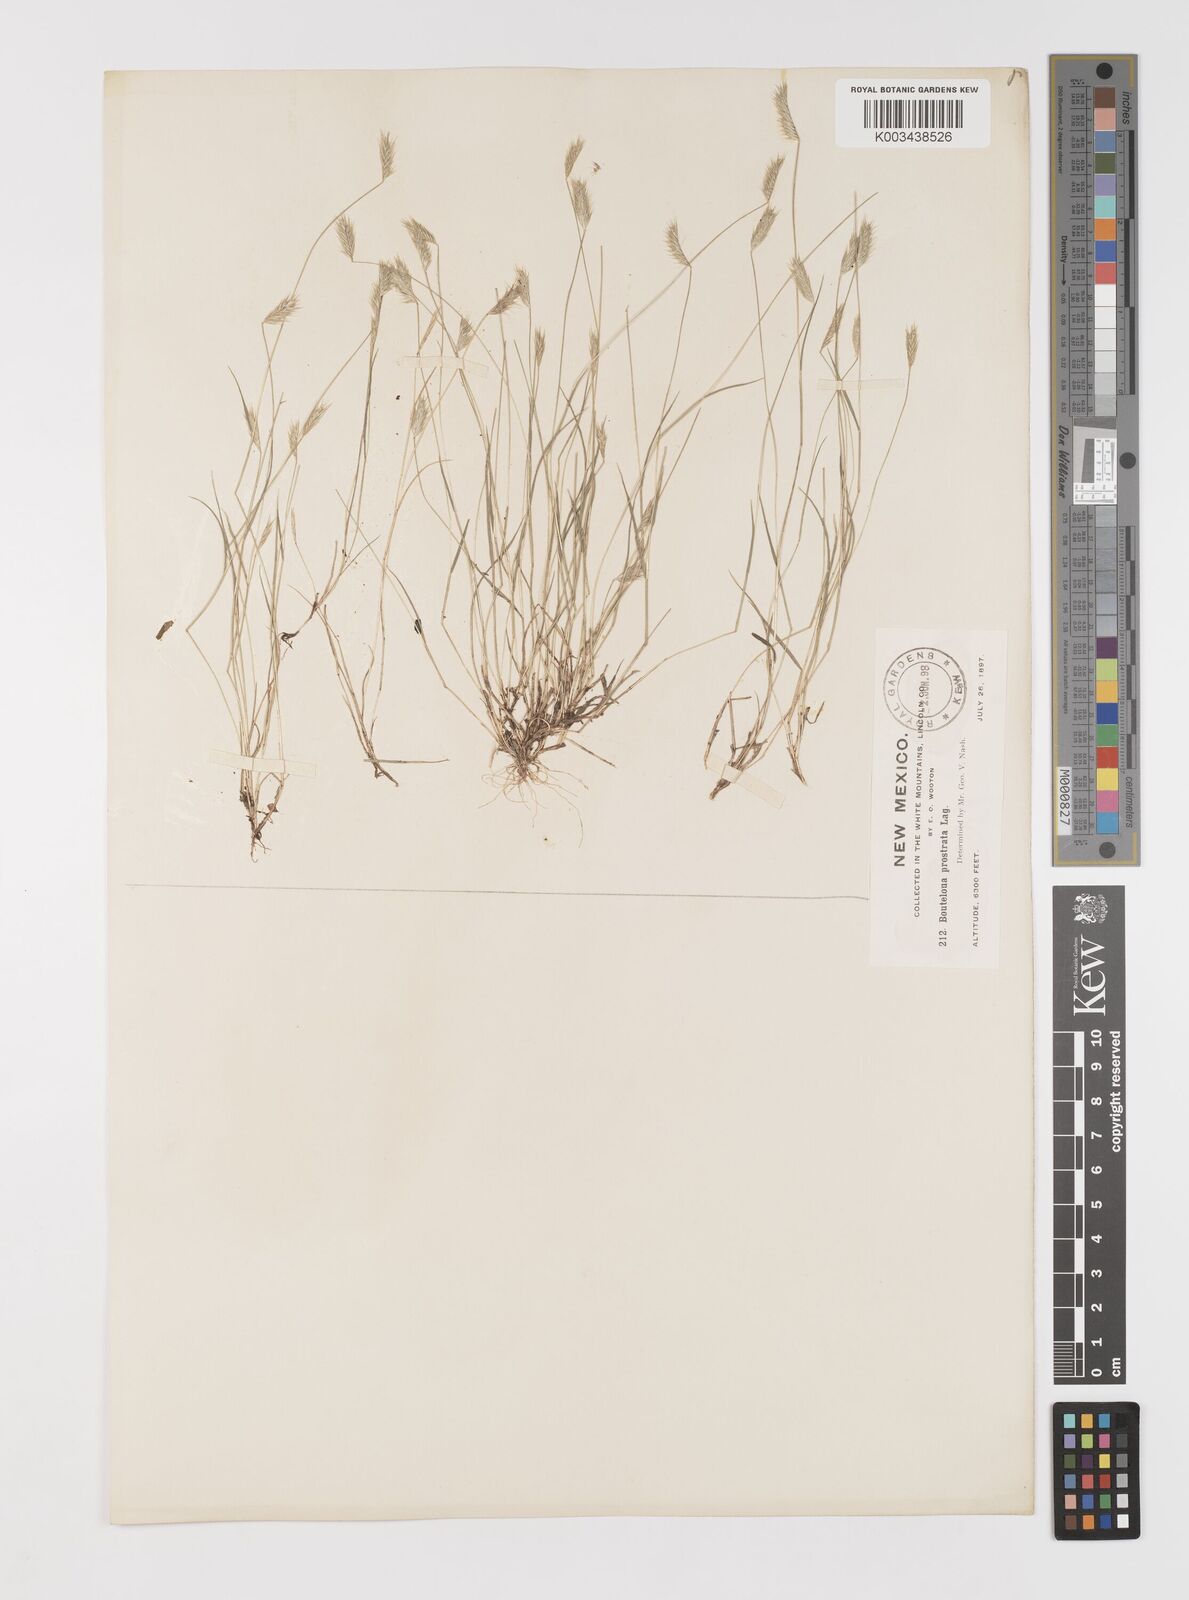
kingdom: Plantae
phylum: Tracheophyta
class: Liliopsida
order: Poales
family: Poaceae
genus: Bouteloua
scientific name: Bouteloua simplex
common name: Mat grama
